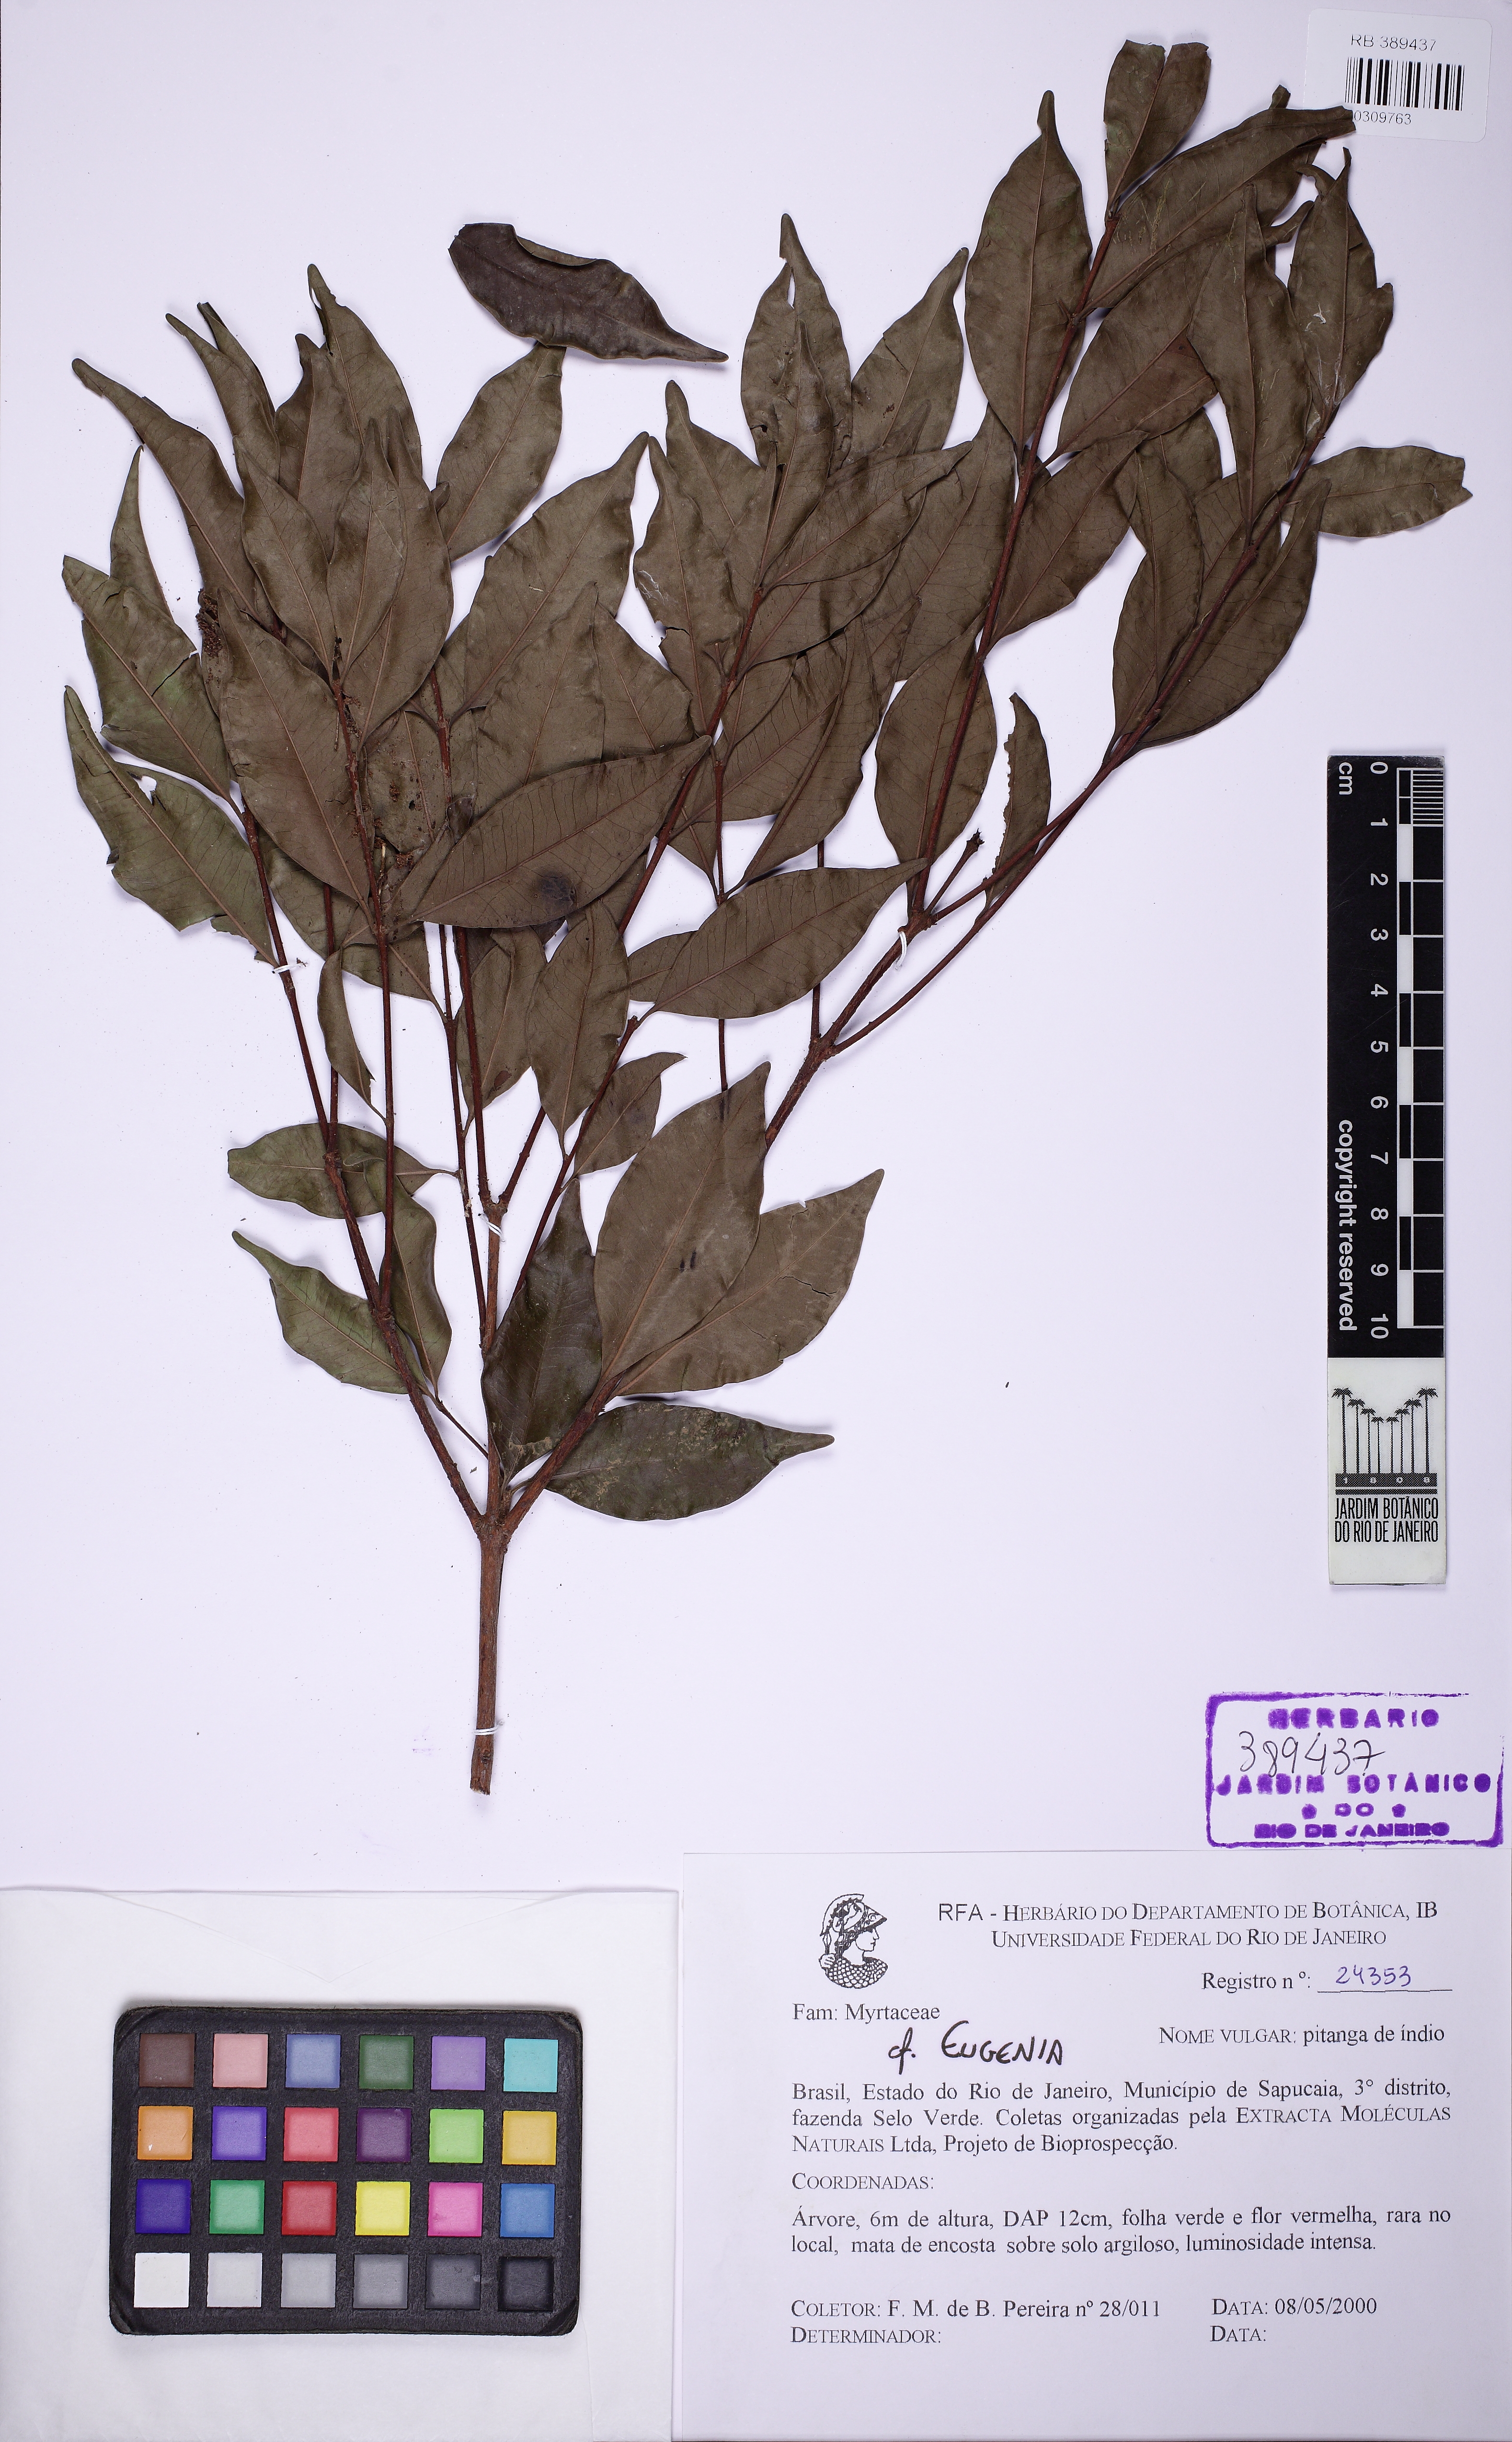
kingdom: Plantae
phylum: Tracheophyta
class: Magnoliopsida
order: Myrtales
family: Myrtaceae
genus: Eugenia
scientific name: Eugenia
